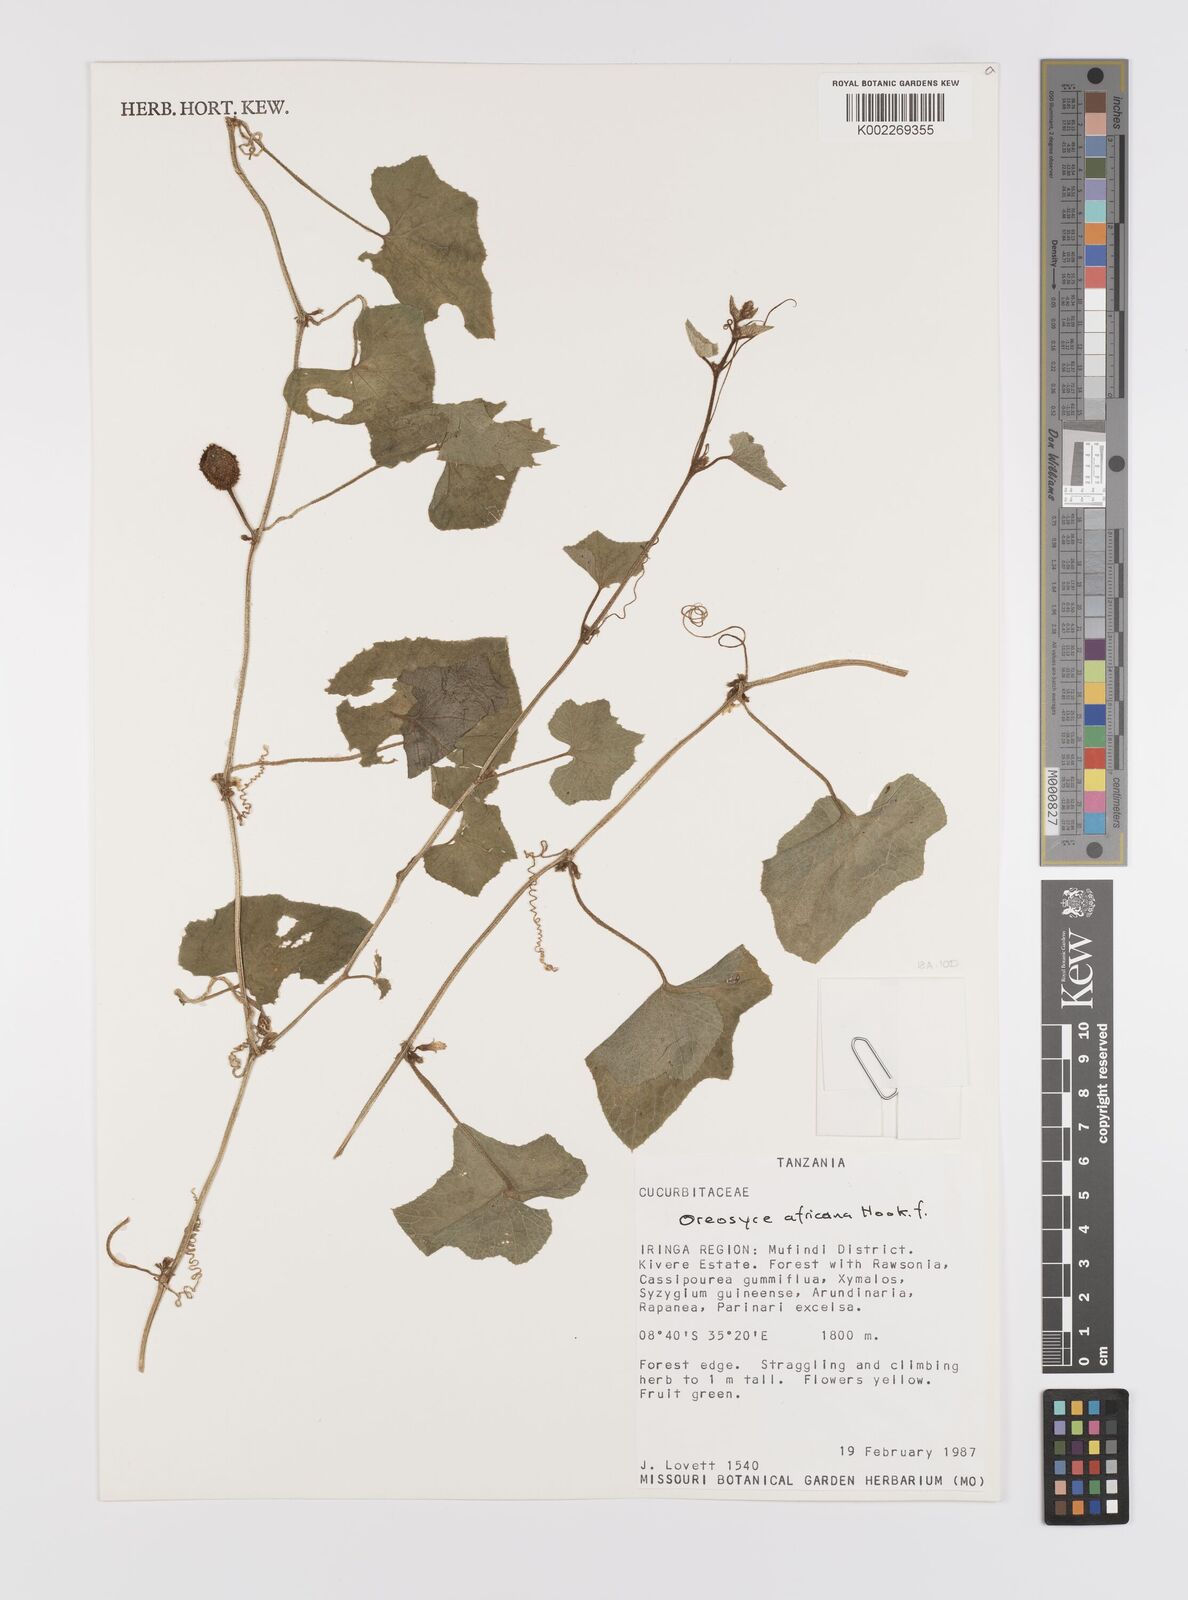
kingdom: Plantae
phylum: Tracheophyta
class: Magnoliopsida
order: Cucurbitales
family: Cucurbitaceae
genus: Cucumis
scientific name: Cucumis oreosyce
